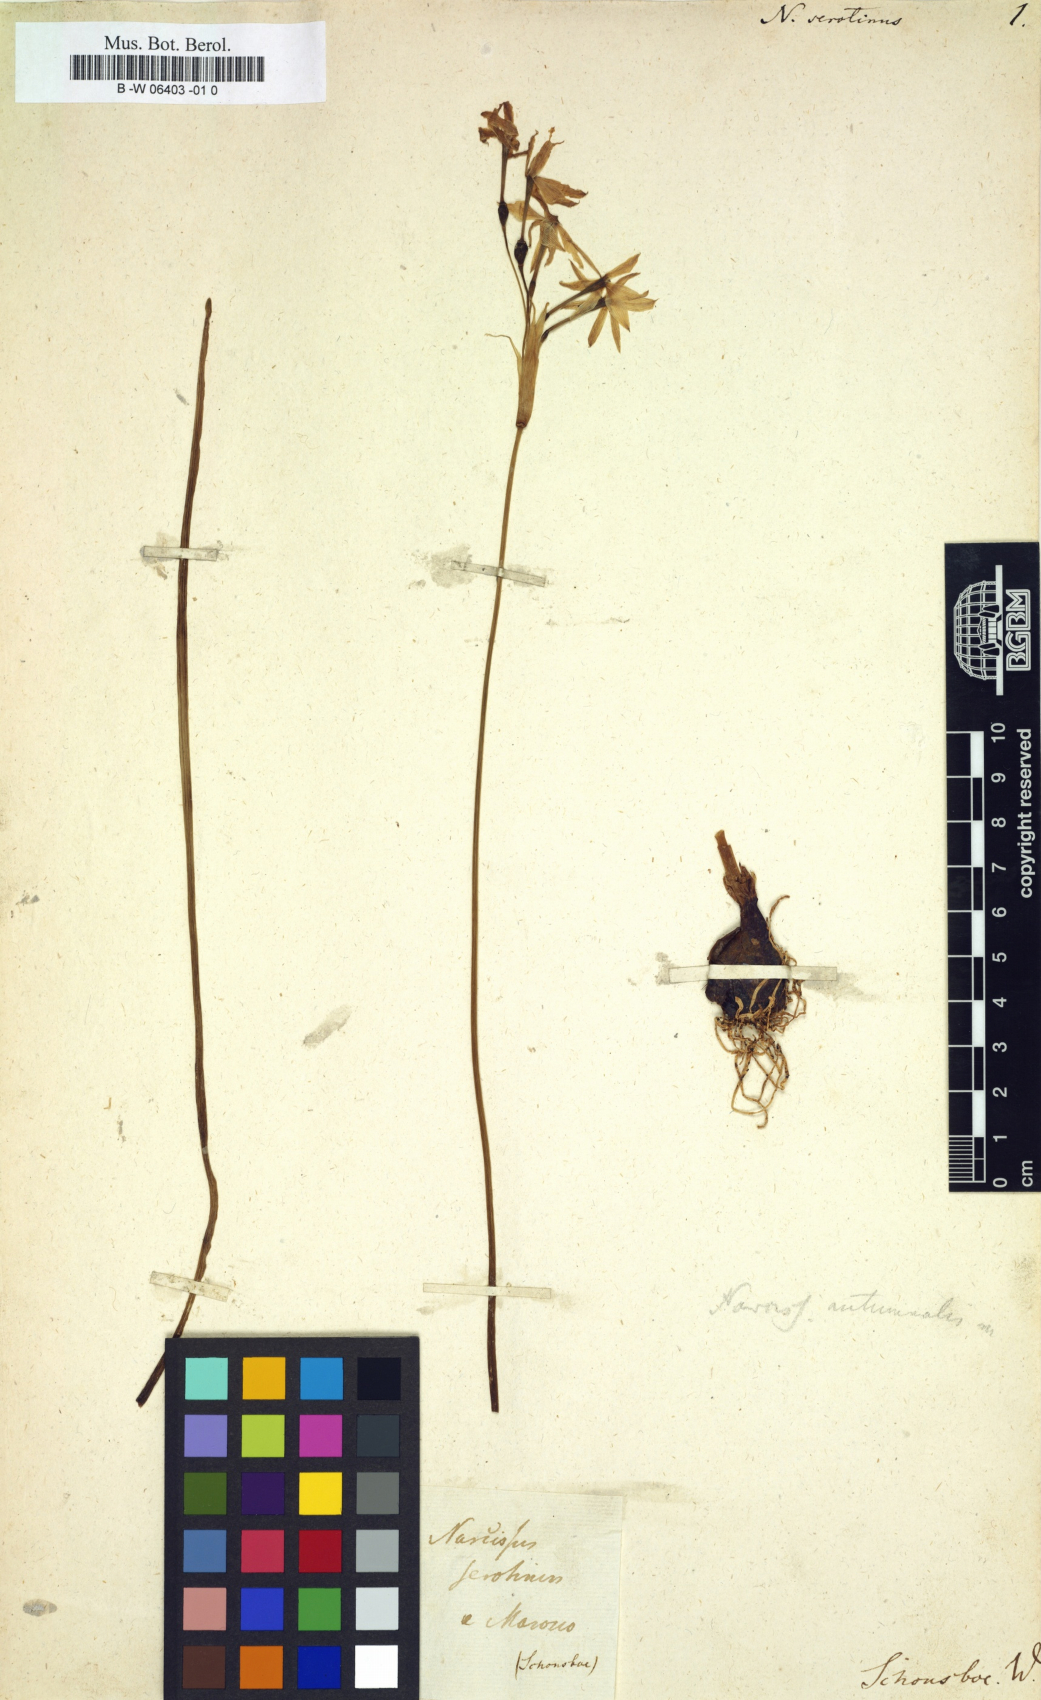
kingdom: Plantae
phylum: Tracheophyta
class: Liliopsida
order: Asparagales
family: Amaryllidaceae
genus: Narcissus
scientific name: Narcissus serotinus
